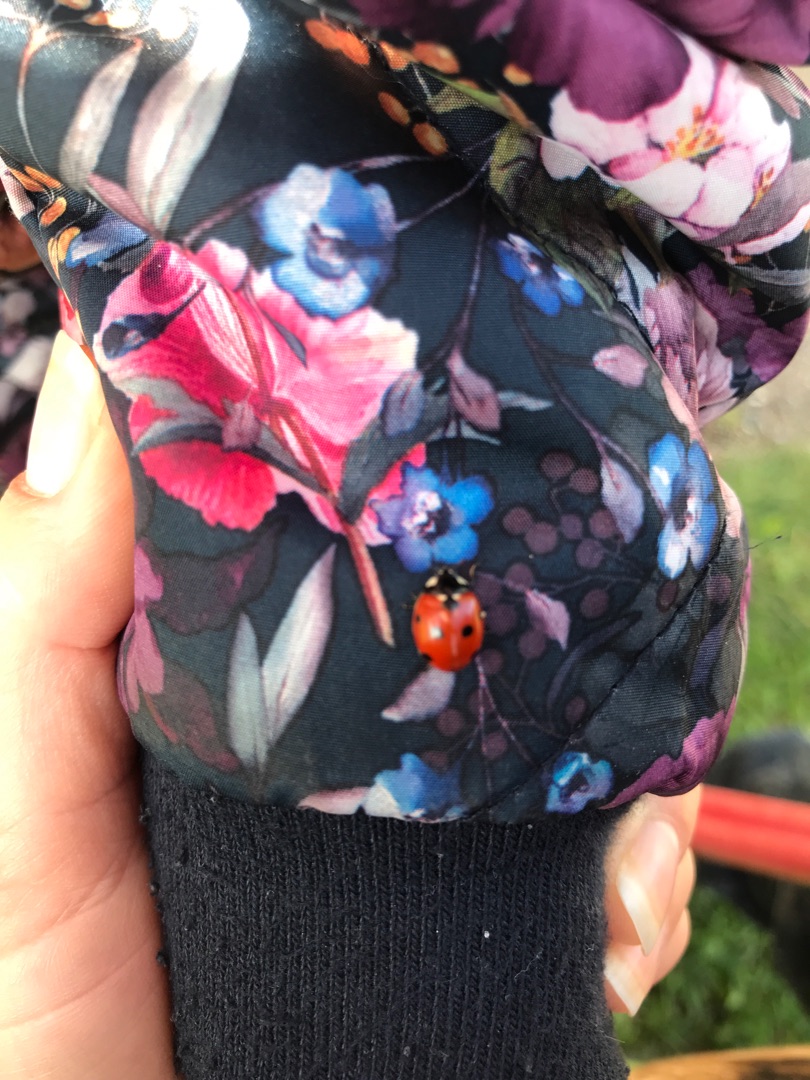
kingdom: Animalia
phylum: Arthropoda
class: Insecta
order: Coleoptera
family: Coccinellidae
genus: Coccinella
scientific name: Coccinella septempunctata
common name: Syvplettet mariehøne
